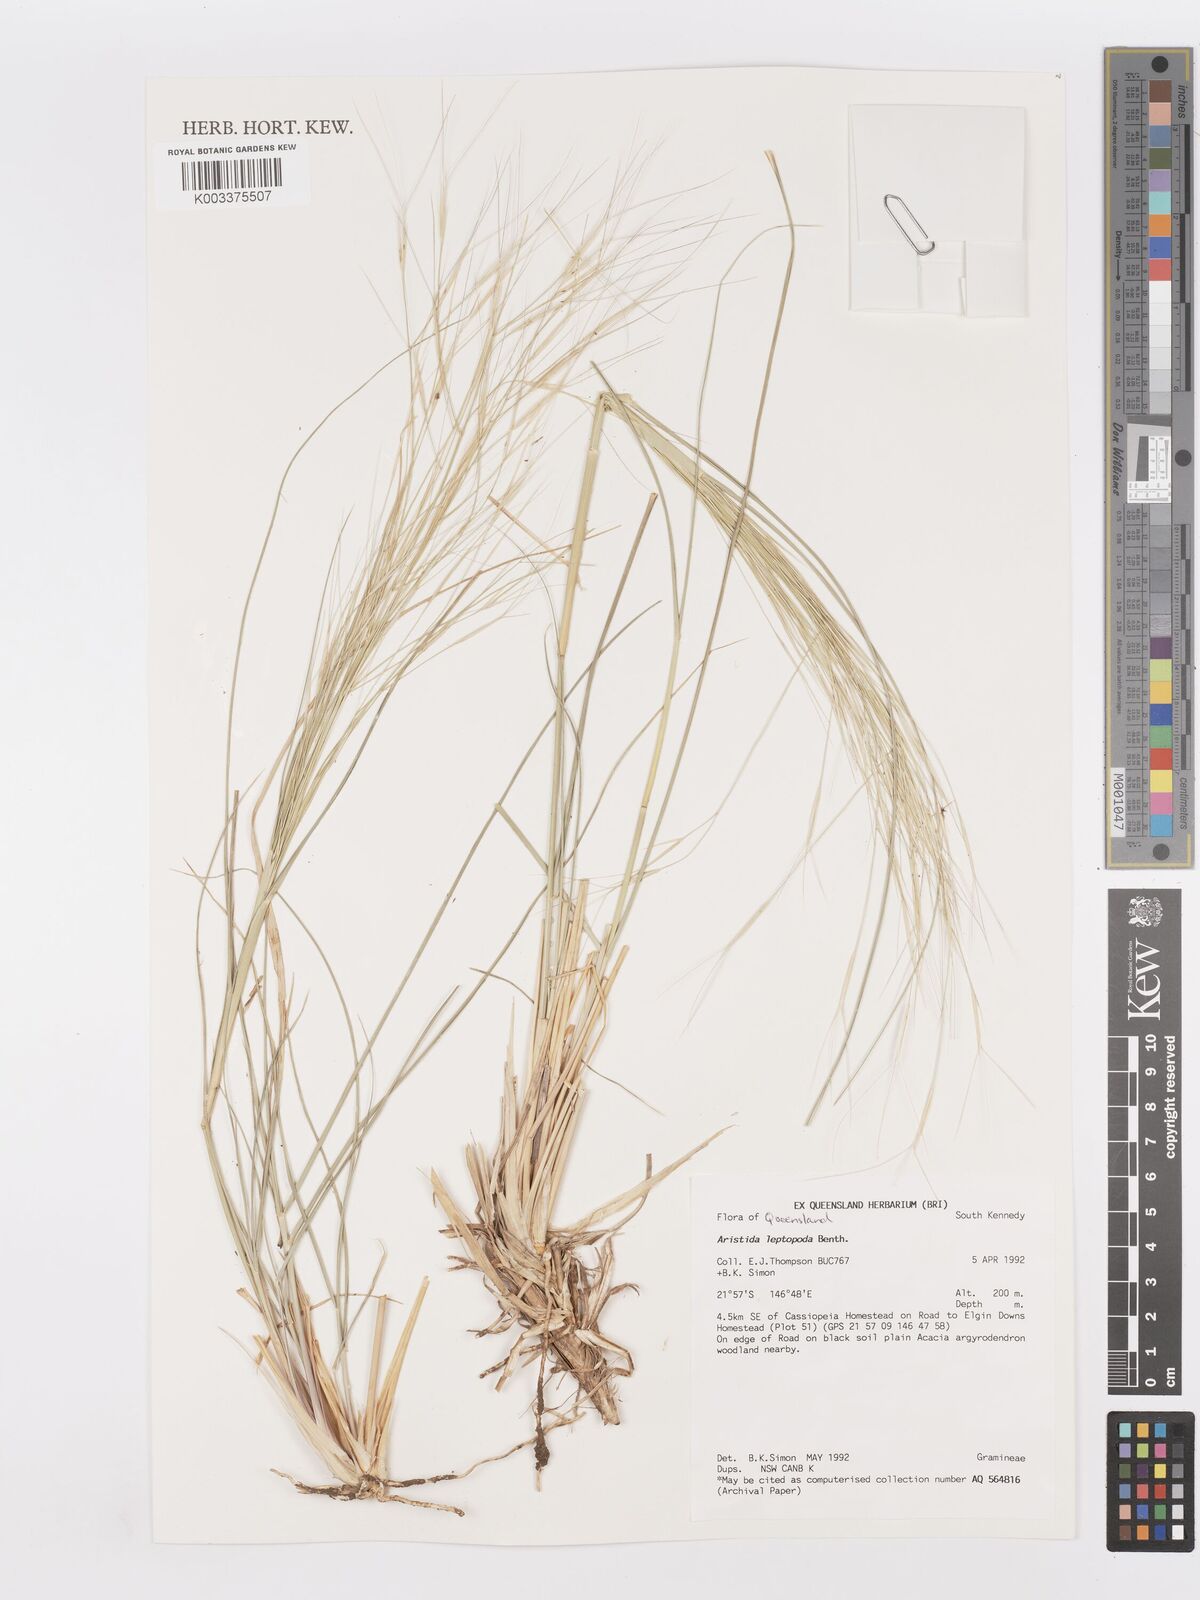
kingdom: Plantae
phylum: Tracheophyta
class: Liliopsida
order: Poales
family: Poaceae
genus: Aristida
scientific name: Aristida leptopoda
